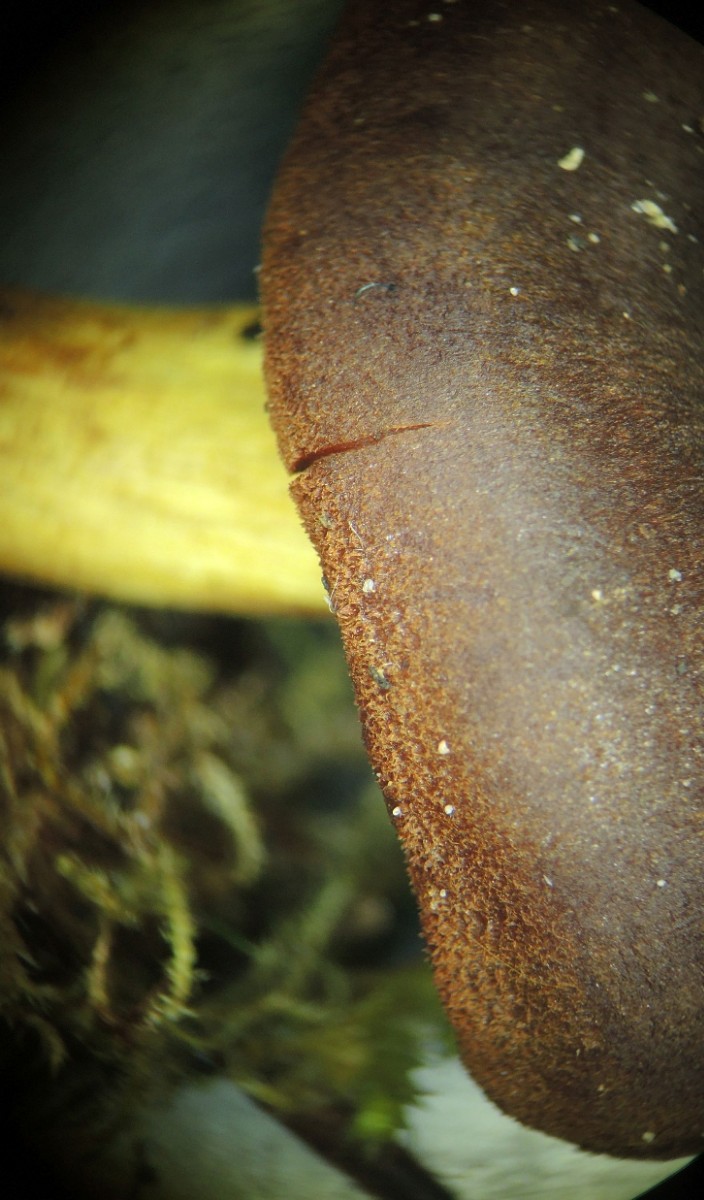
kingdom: Fungi
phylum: Basidiomycota
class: Agaricomycetes
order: Agaricales
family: Cortinariaceae
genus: Cortinarius
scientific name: Cortinarius pellstonianus
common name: zoneret slørhat
